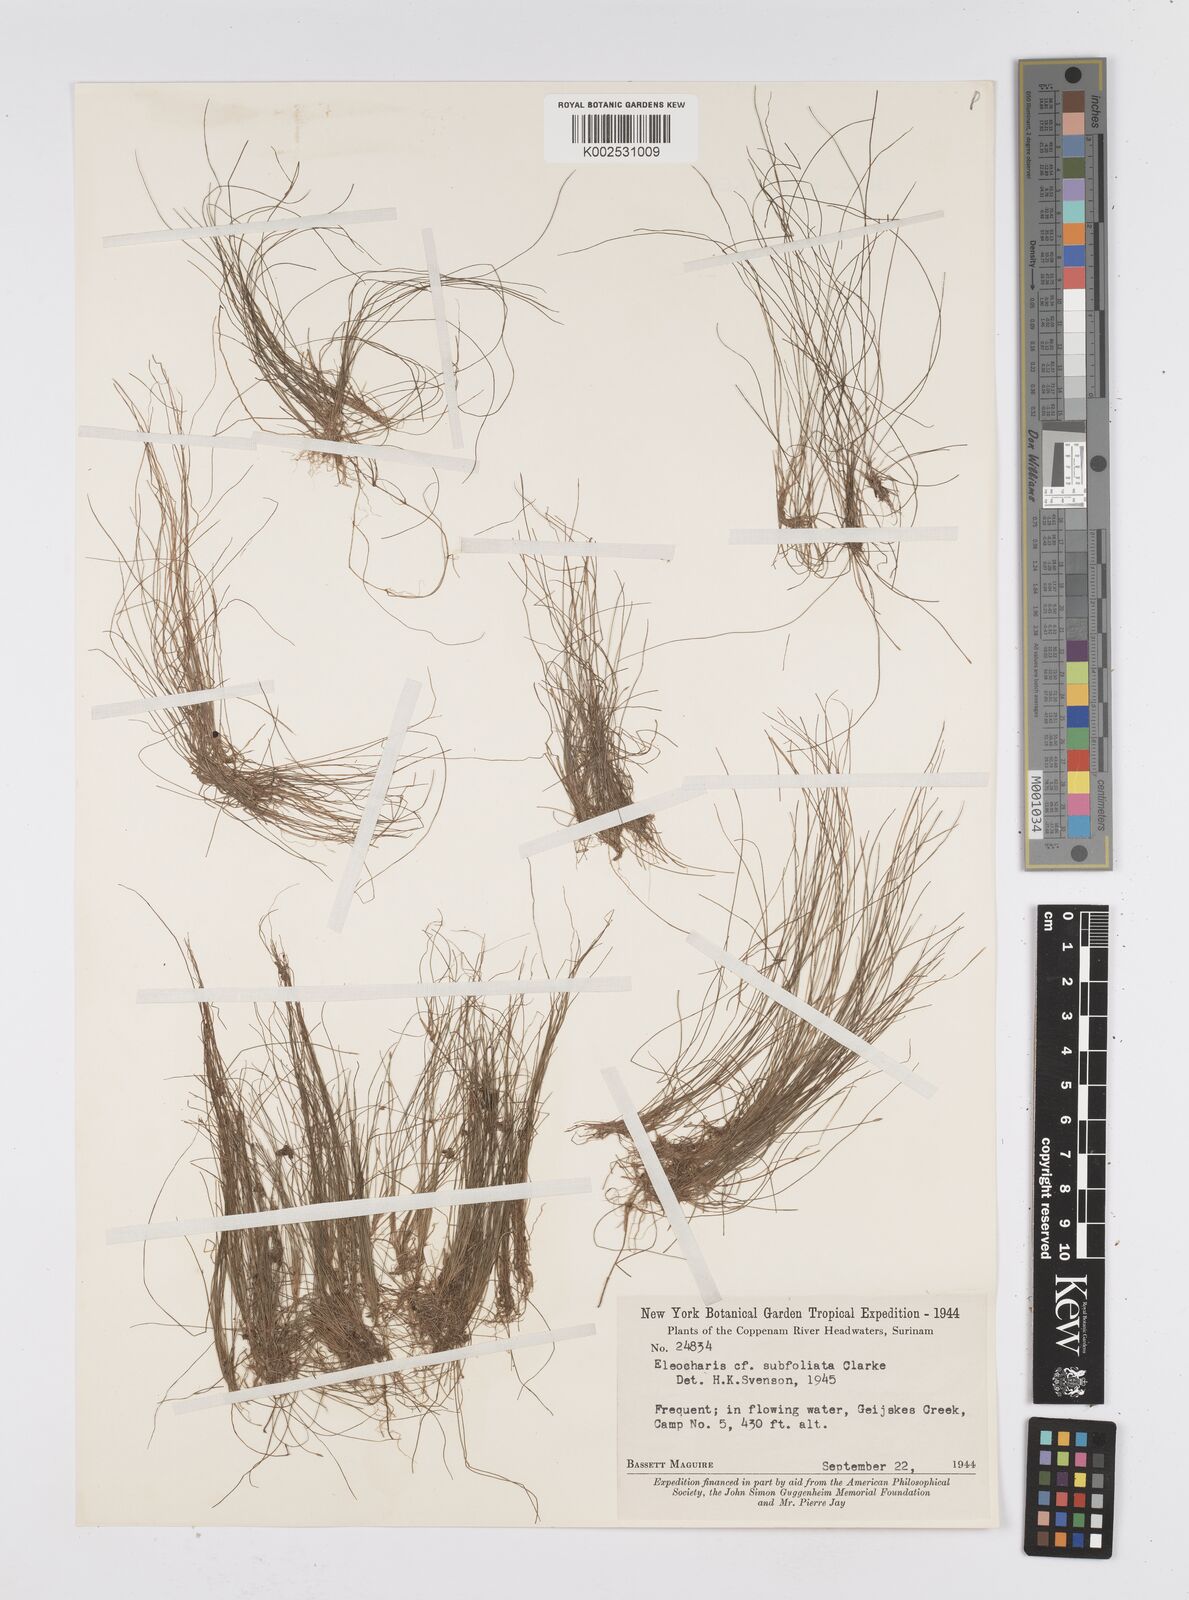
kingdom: Plantae
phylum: Tracheophyta
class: Liliopsida
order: Poales
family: Cyperaceae
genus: Eleocharis
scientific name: Eleocharis minima
